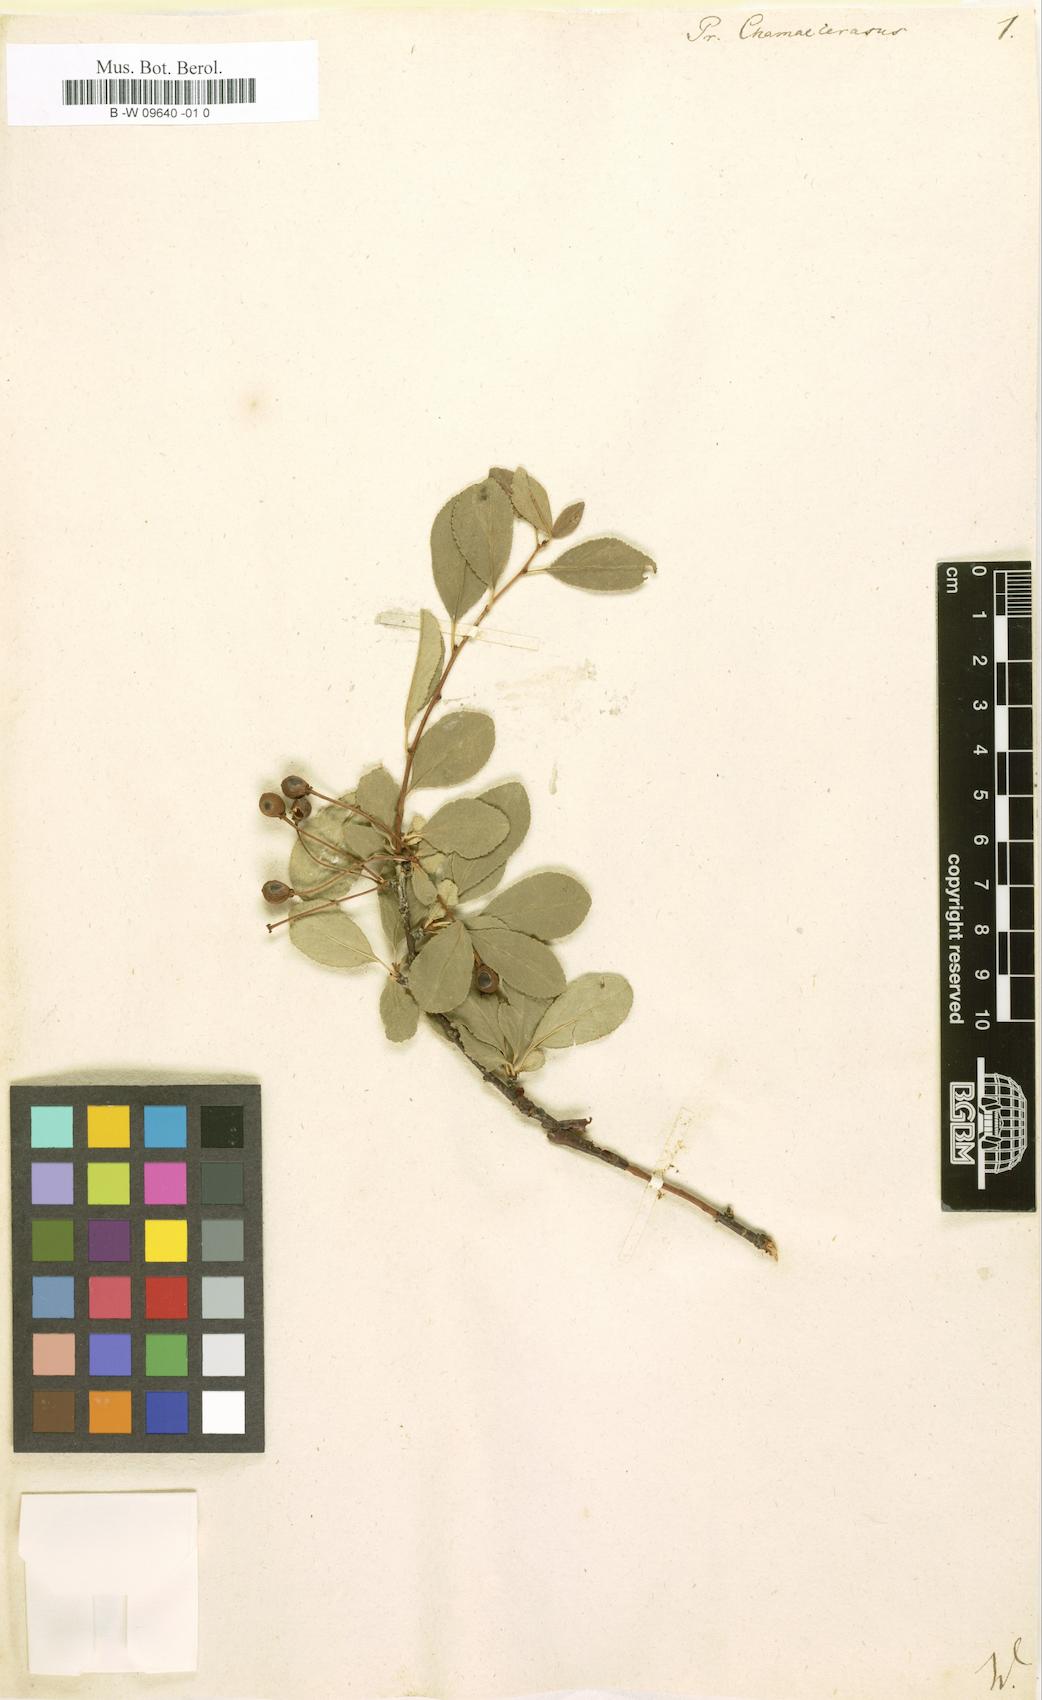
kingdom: Plantae
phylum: Tracheophyta
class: Magnoliopsida
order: Rosales
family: Rosaceae
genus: Prunus
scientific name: Prunus fruticosa
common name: European dwarf cherry
